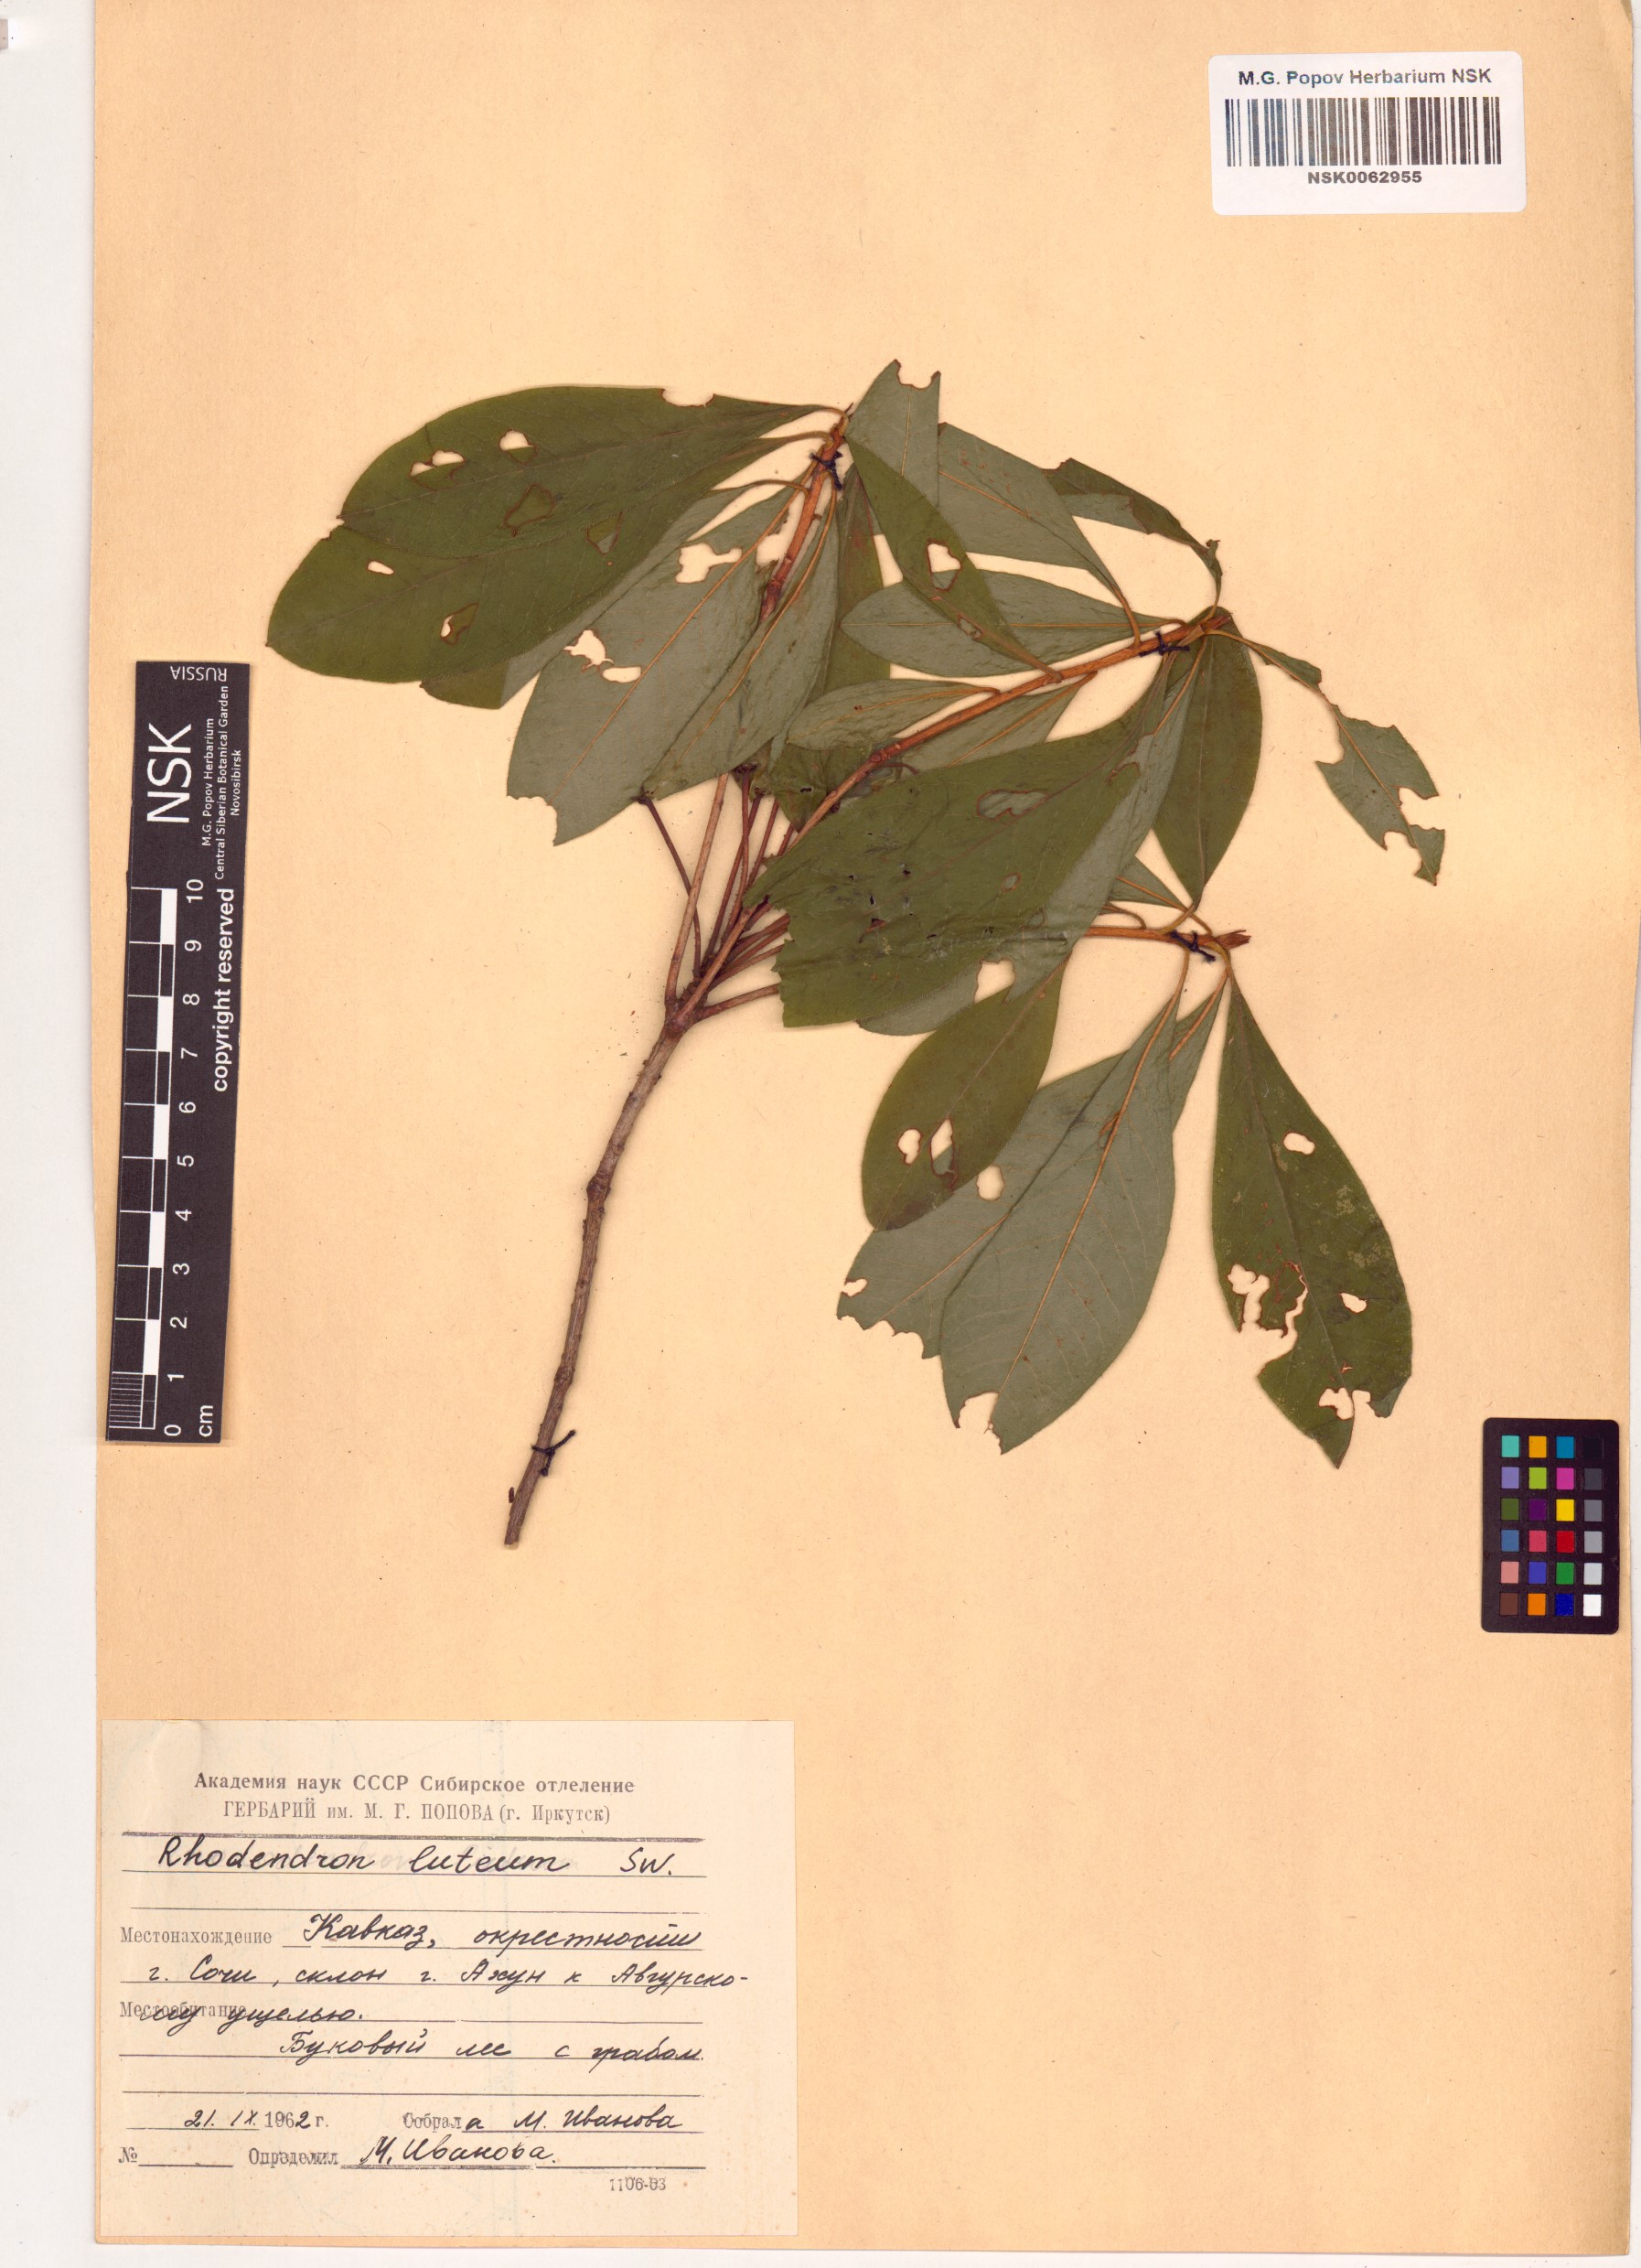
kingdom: Plantae
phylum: Tracheophyta
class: Magnoliopsida
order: Ericales
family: Ericaceae
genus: Rhododendron
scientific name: Rhododendron luteum
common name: Yellow azalea
